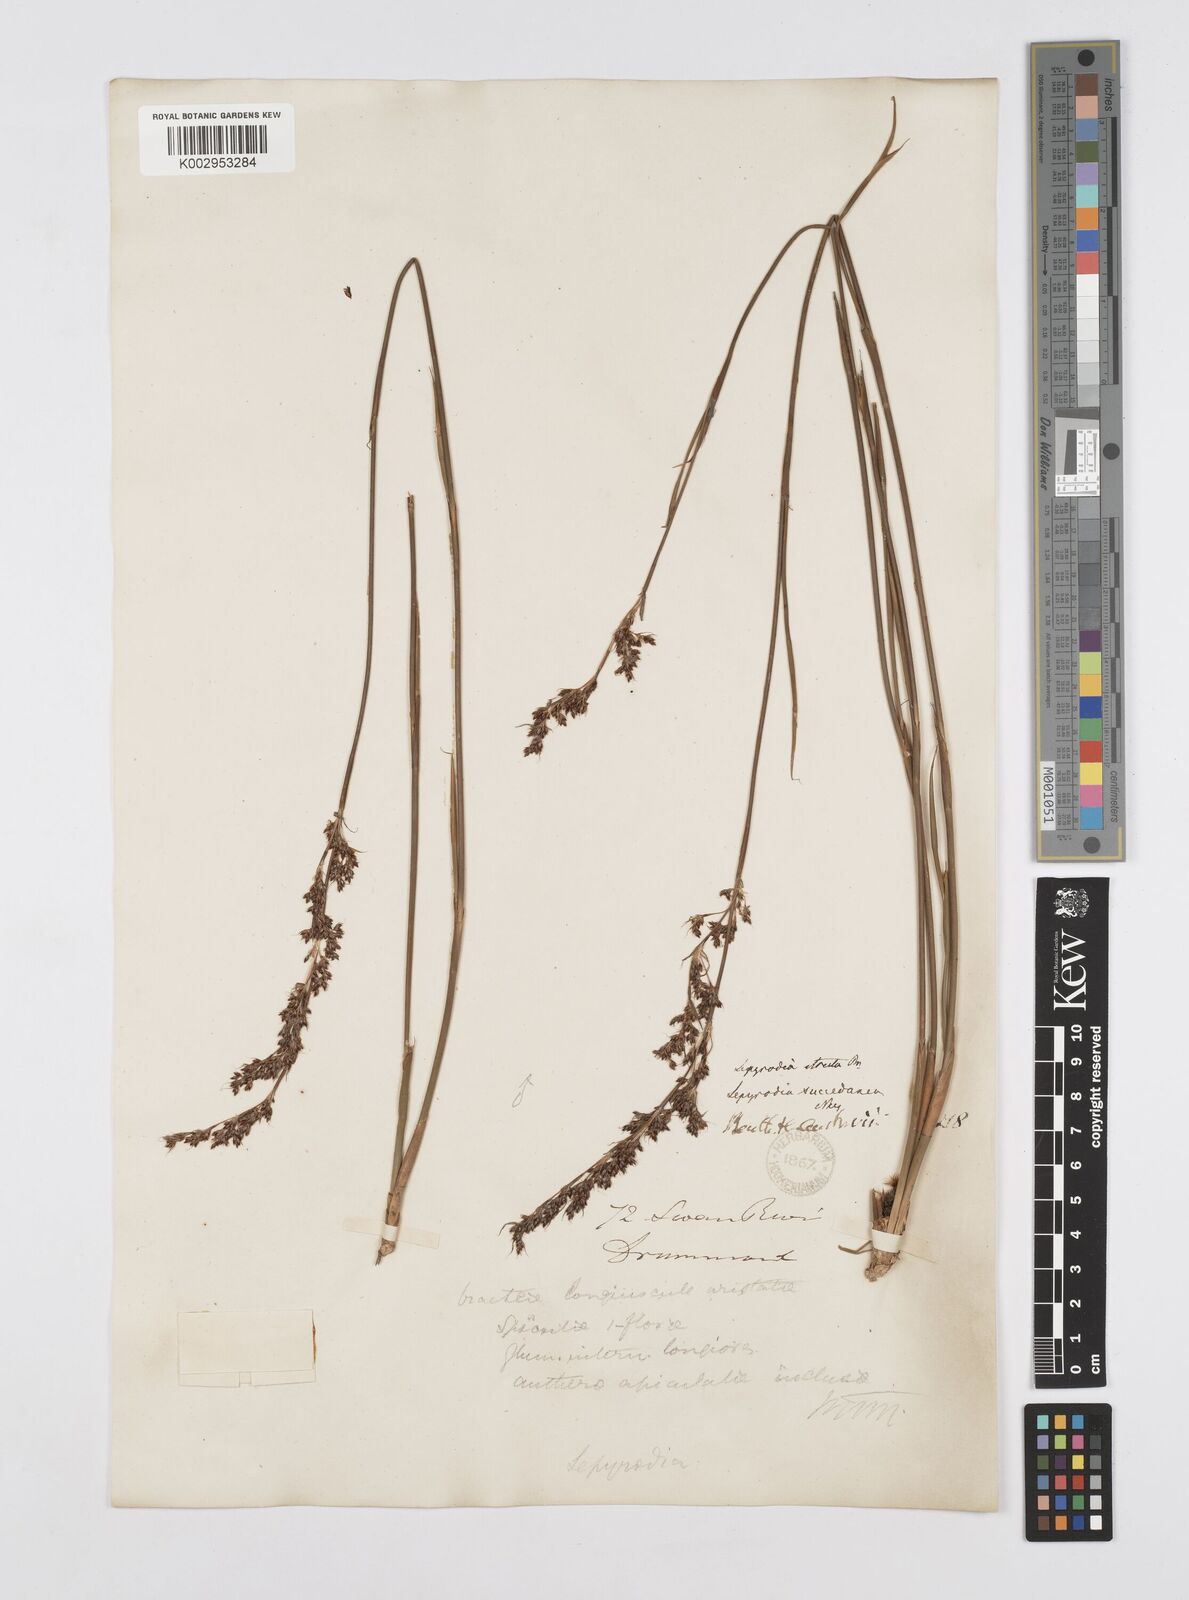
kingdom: Plantae
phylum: Tracheophyta
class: Liliopsida
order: Poales
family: Restionaceae
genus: Sporadanthus
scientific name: Sporadanthus strictus
